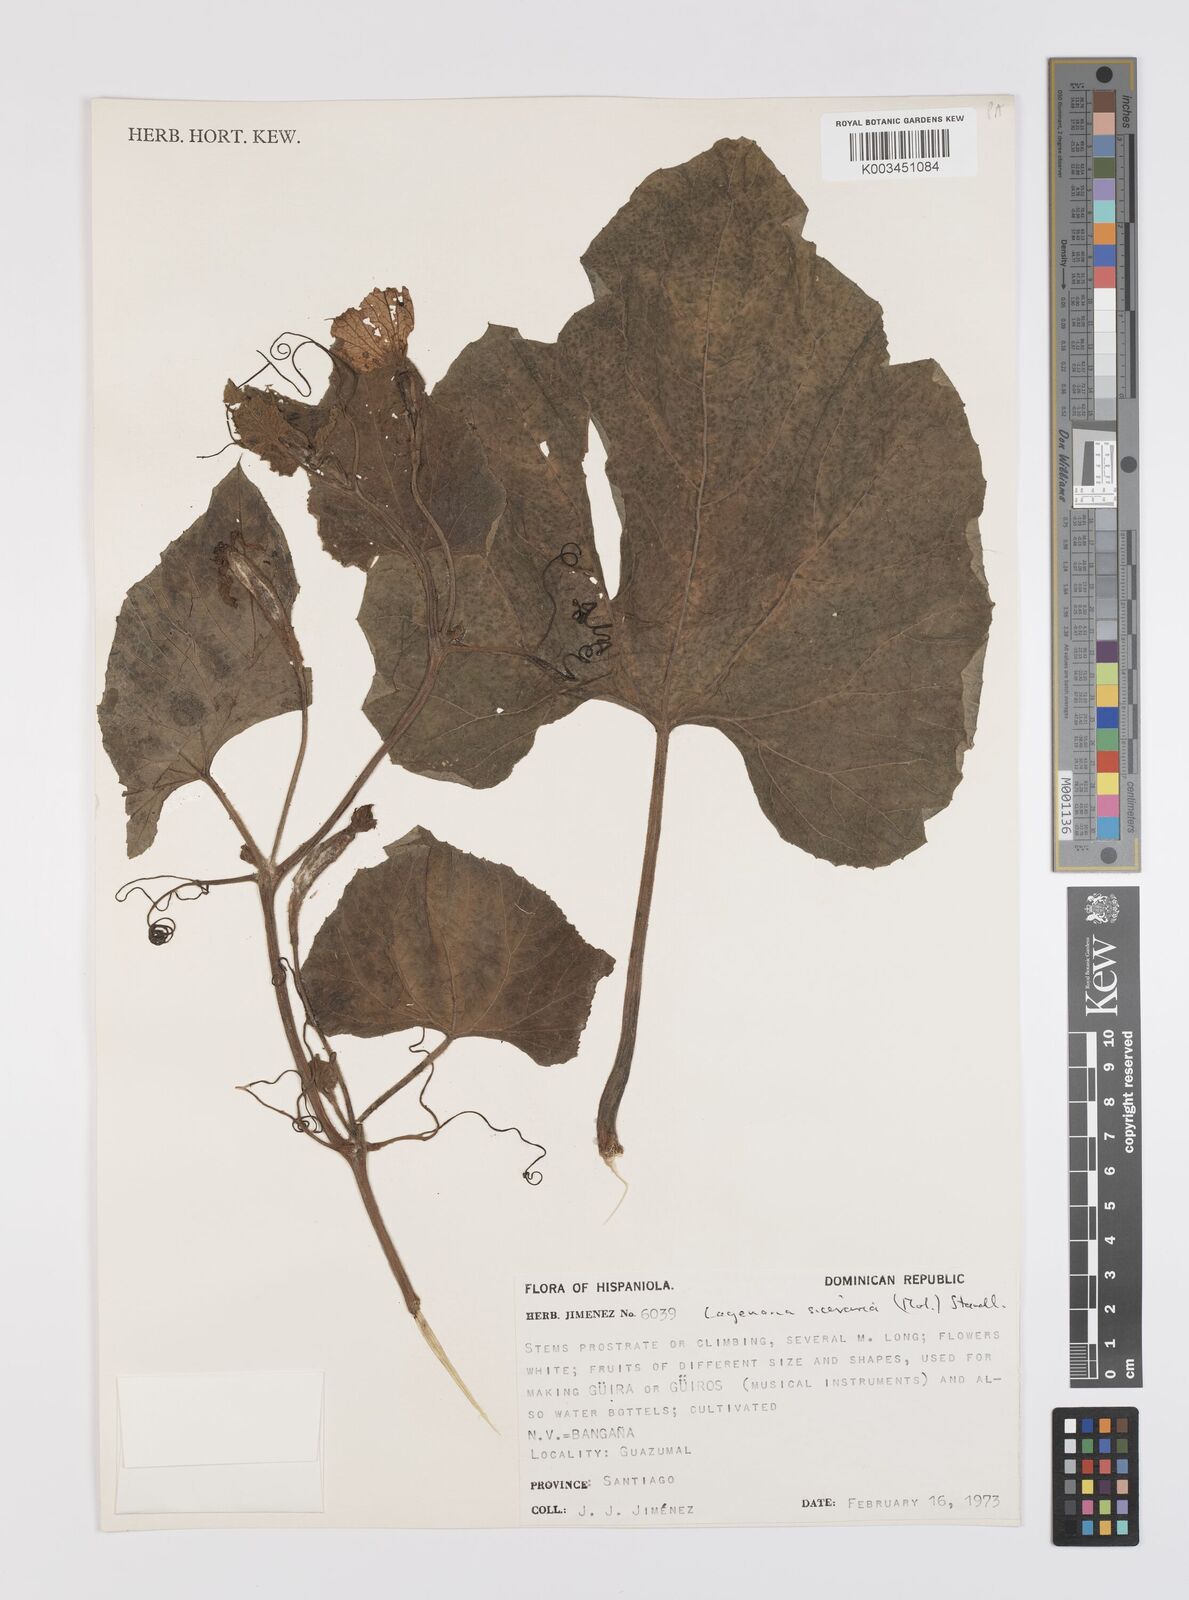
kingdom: Plantae
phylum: Tracheophyta
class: Magnoliopsida
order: Cucurbitales
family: Cucurbitaceae
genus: Lagenaria
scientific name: Lagenaria siceraria
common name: Bottle gourd
